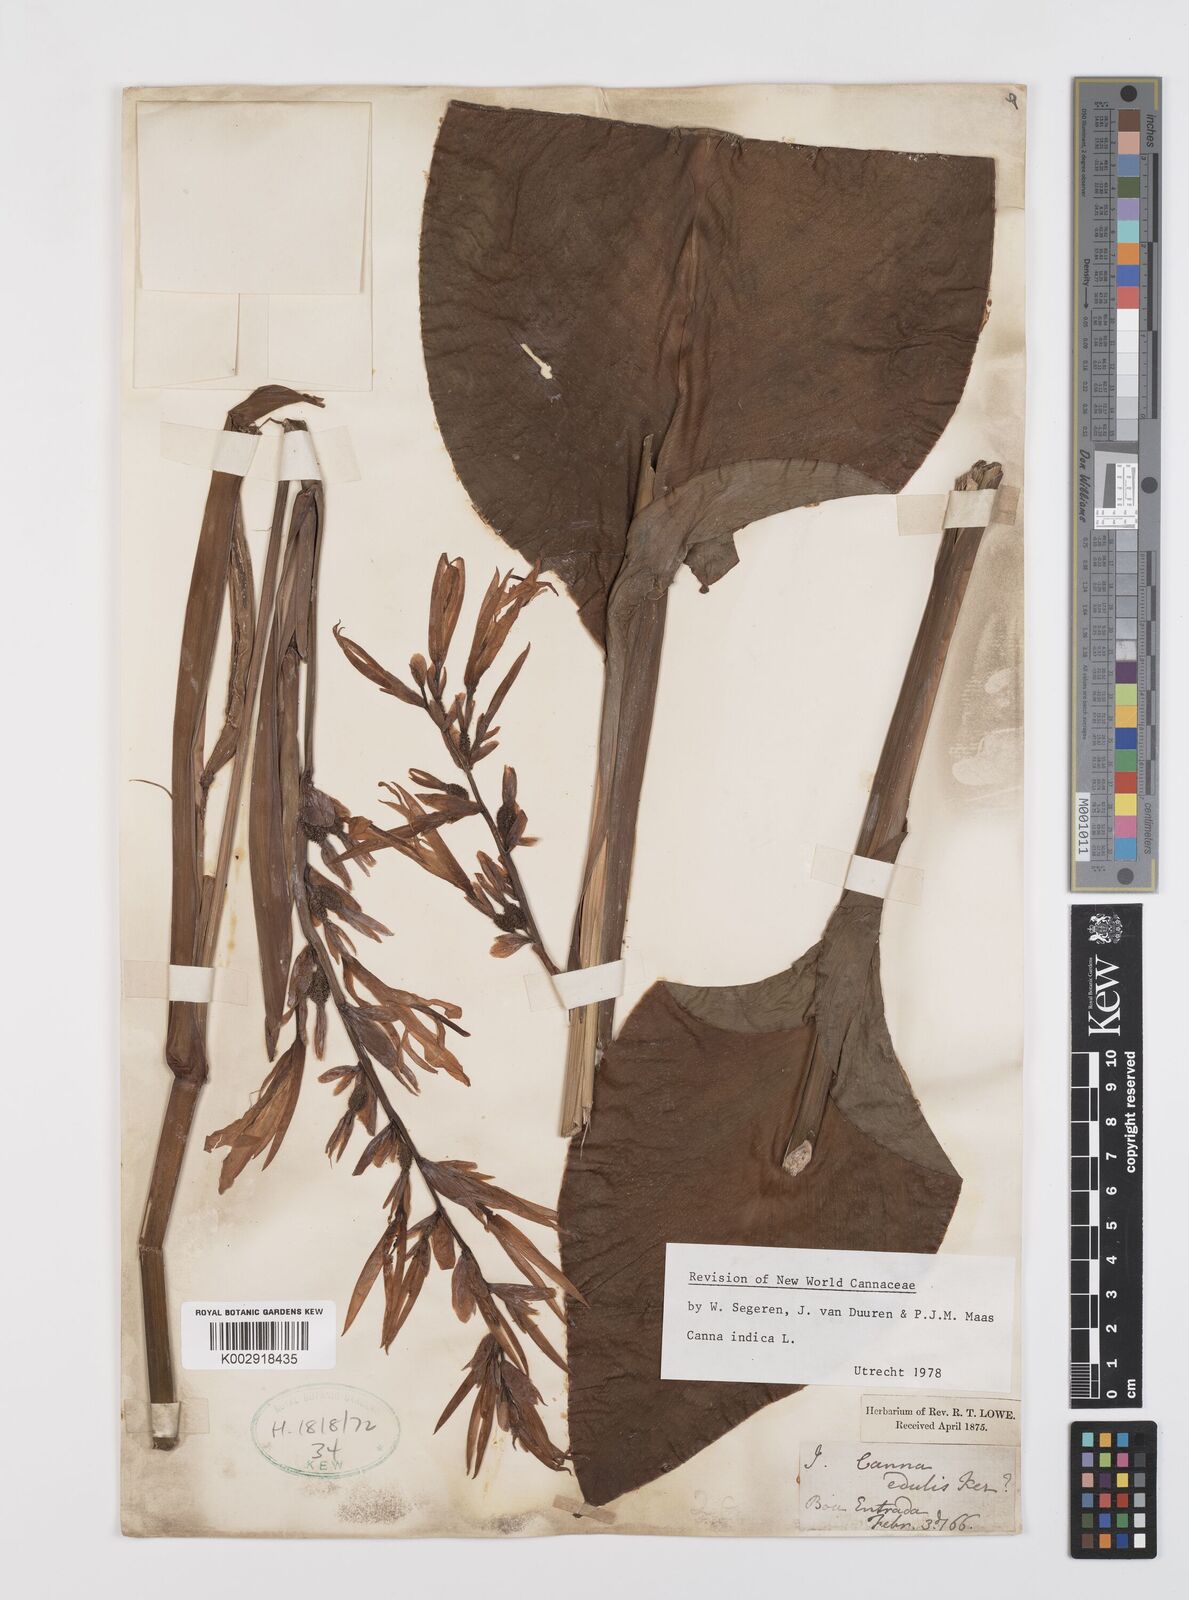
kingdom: Plantae
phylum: Tracheophyta
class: Liliopsida
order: Zingiberales
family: Cannaceae
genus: Canna
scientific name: Canna indica
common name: Indian shot
